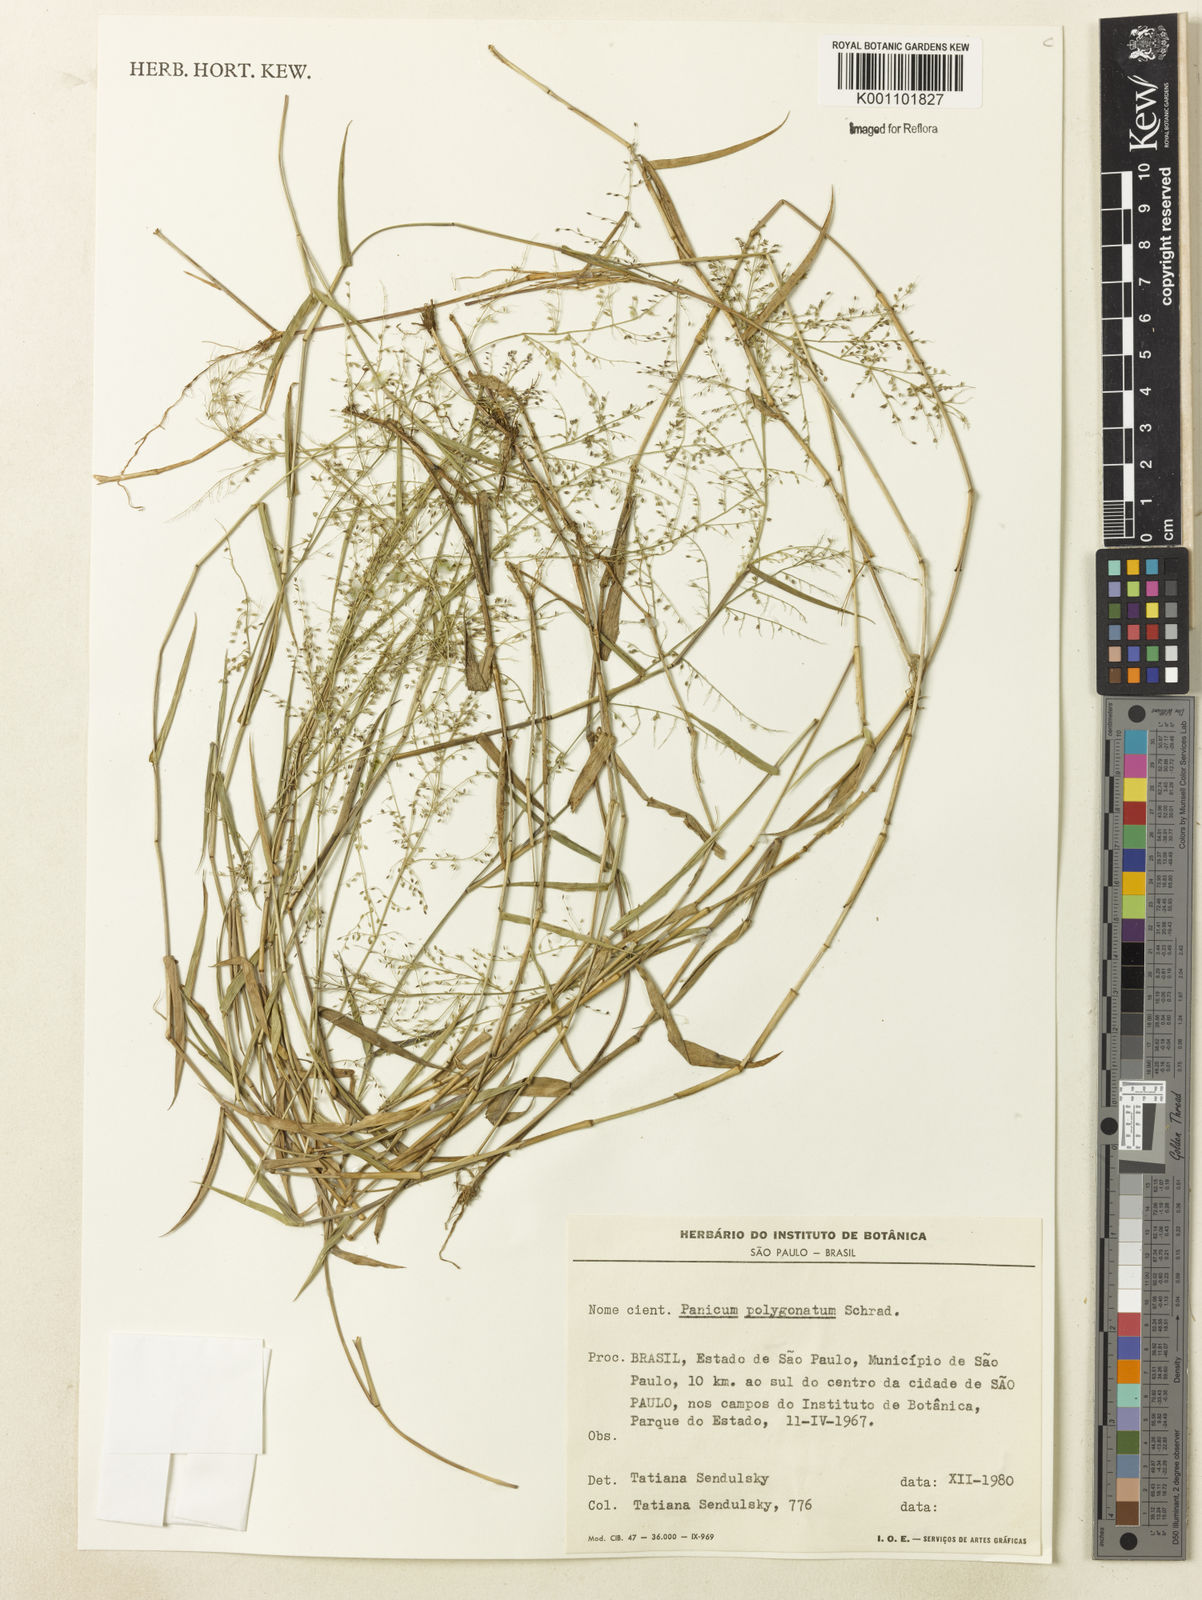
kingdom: Plantae
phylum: Tracheophyta
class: Liliopsida
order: Poales
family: Poaceae
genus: Rugoloa
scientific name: Rugoloa polygonata
